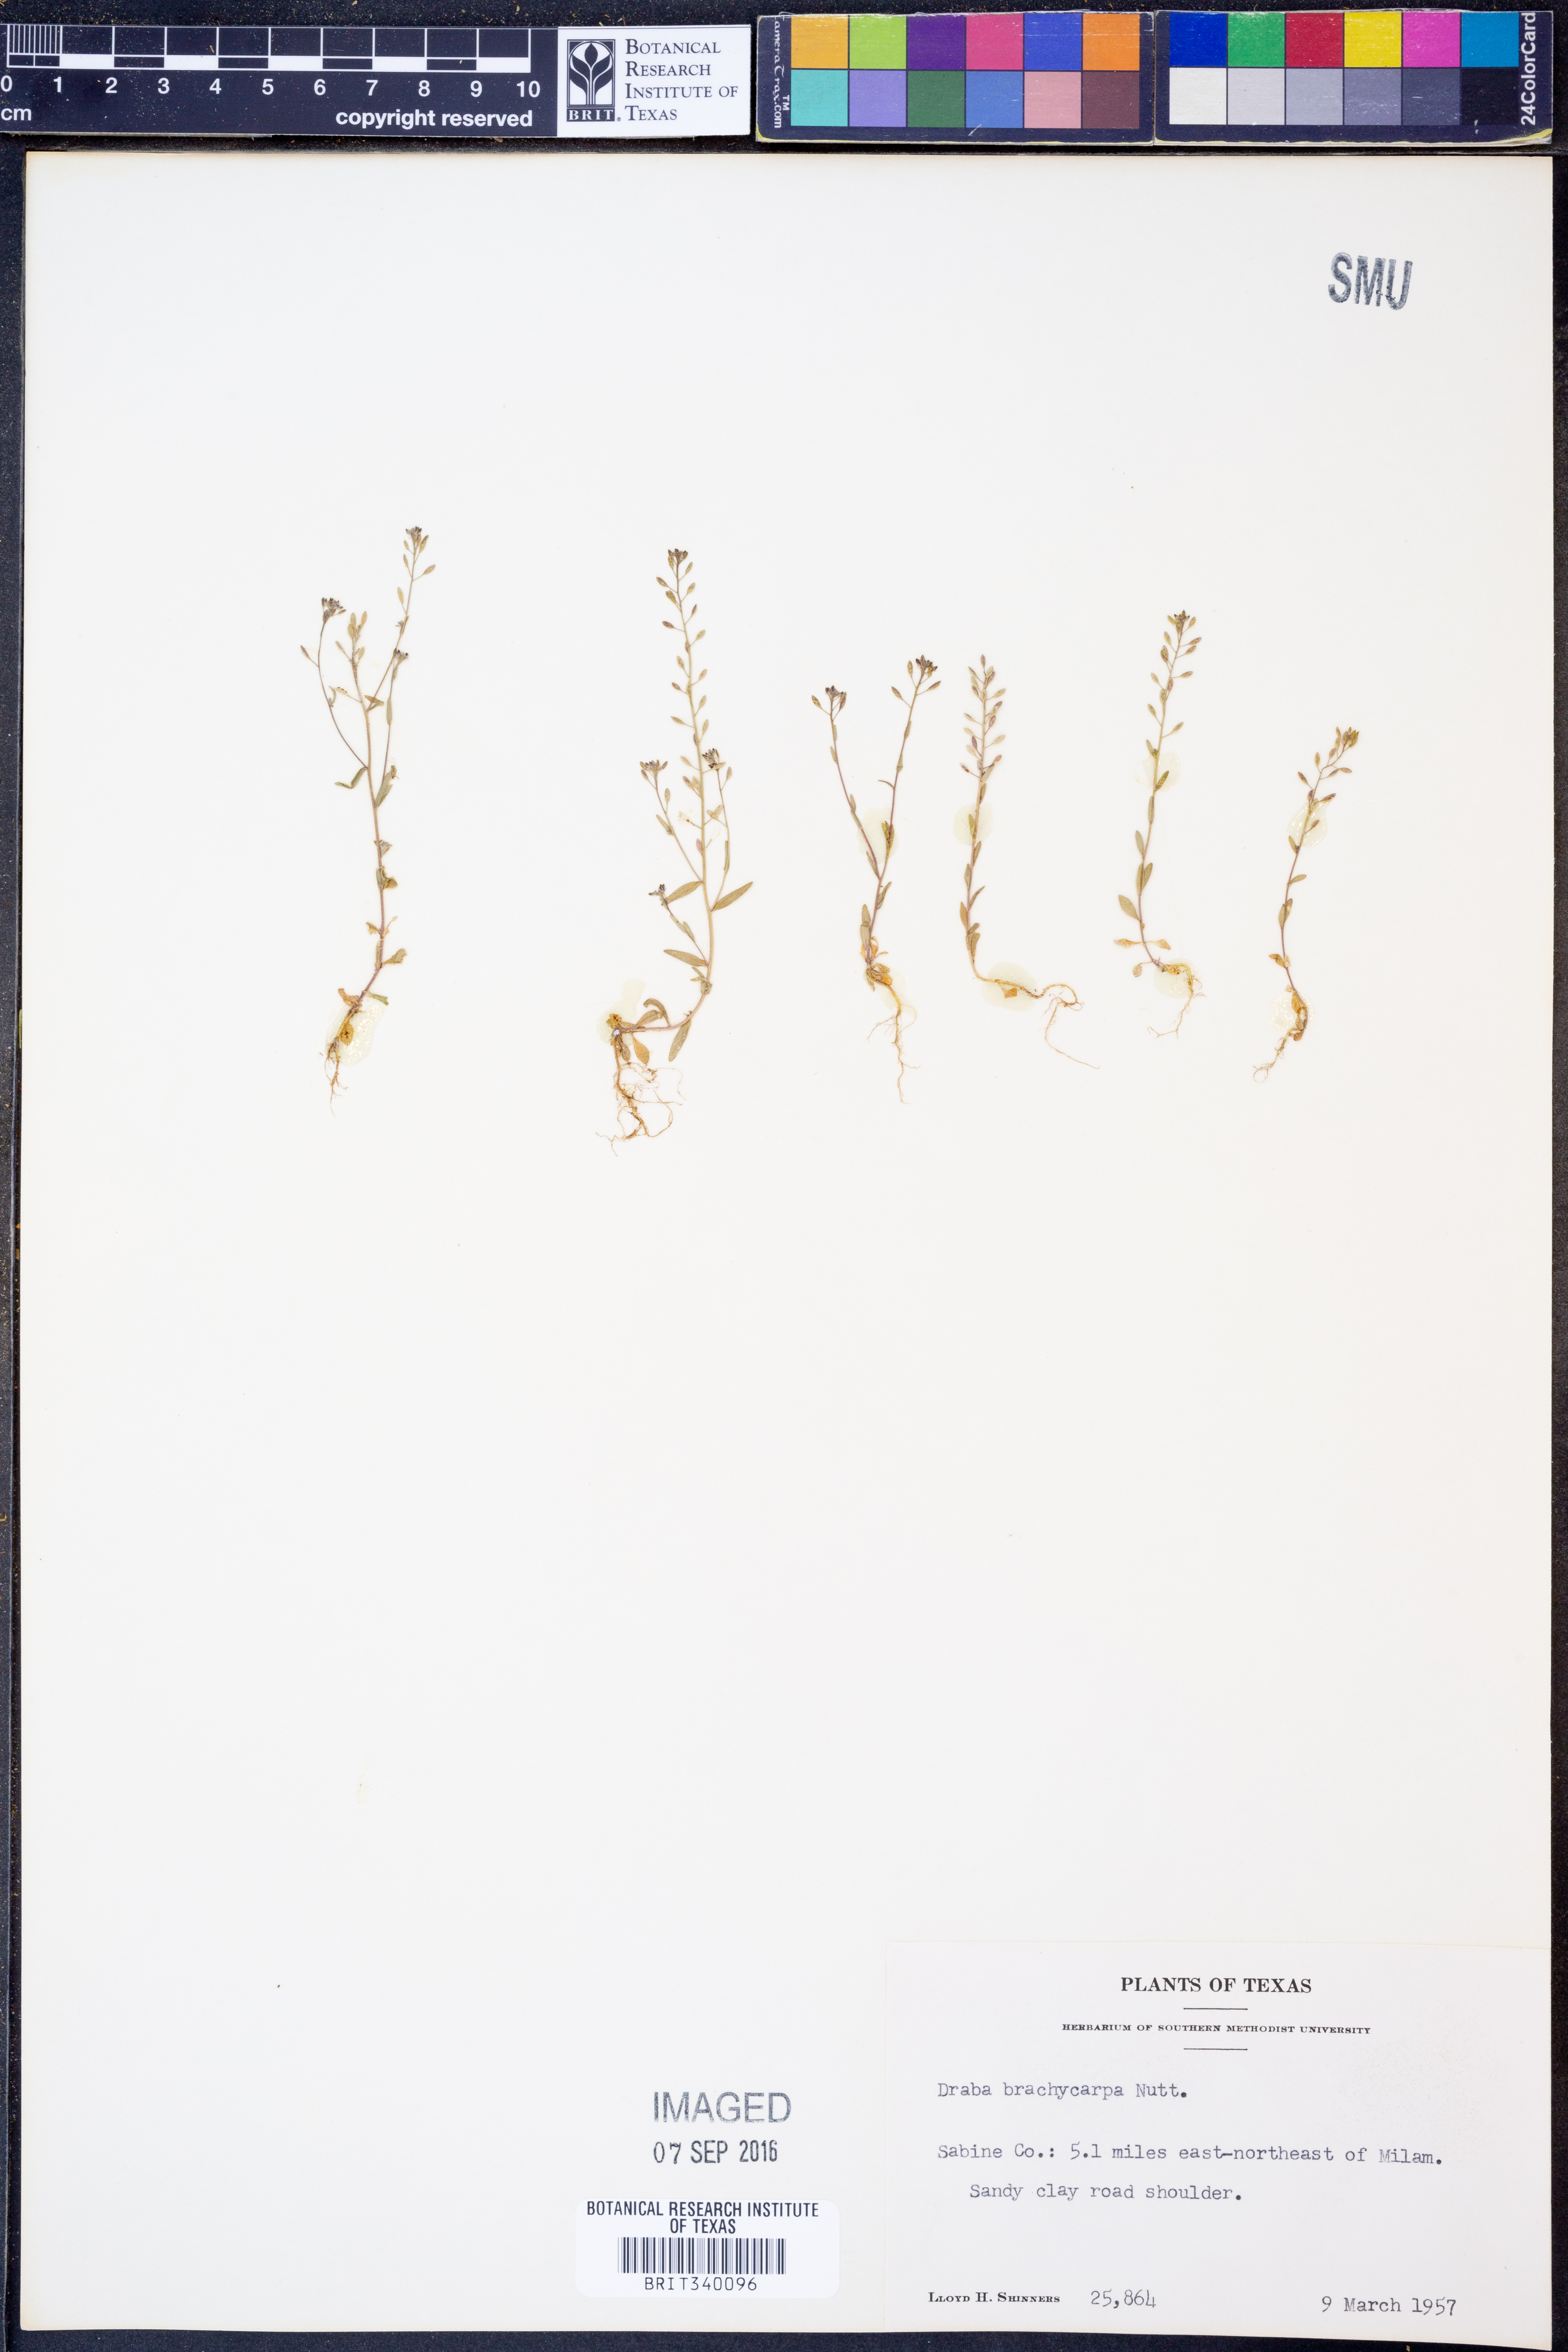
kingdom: Plantae
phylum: Tracheophyta
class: Magnoliopsida
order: Brassicales
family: Brassicaceae
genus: Abdra
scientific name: Abdra brachycarpa
